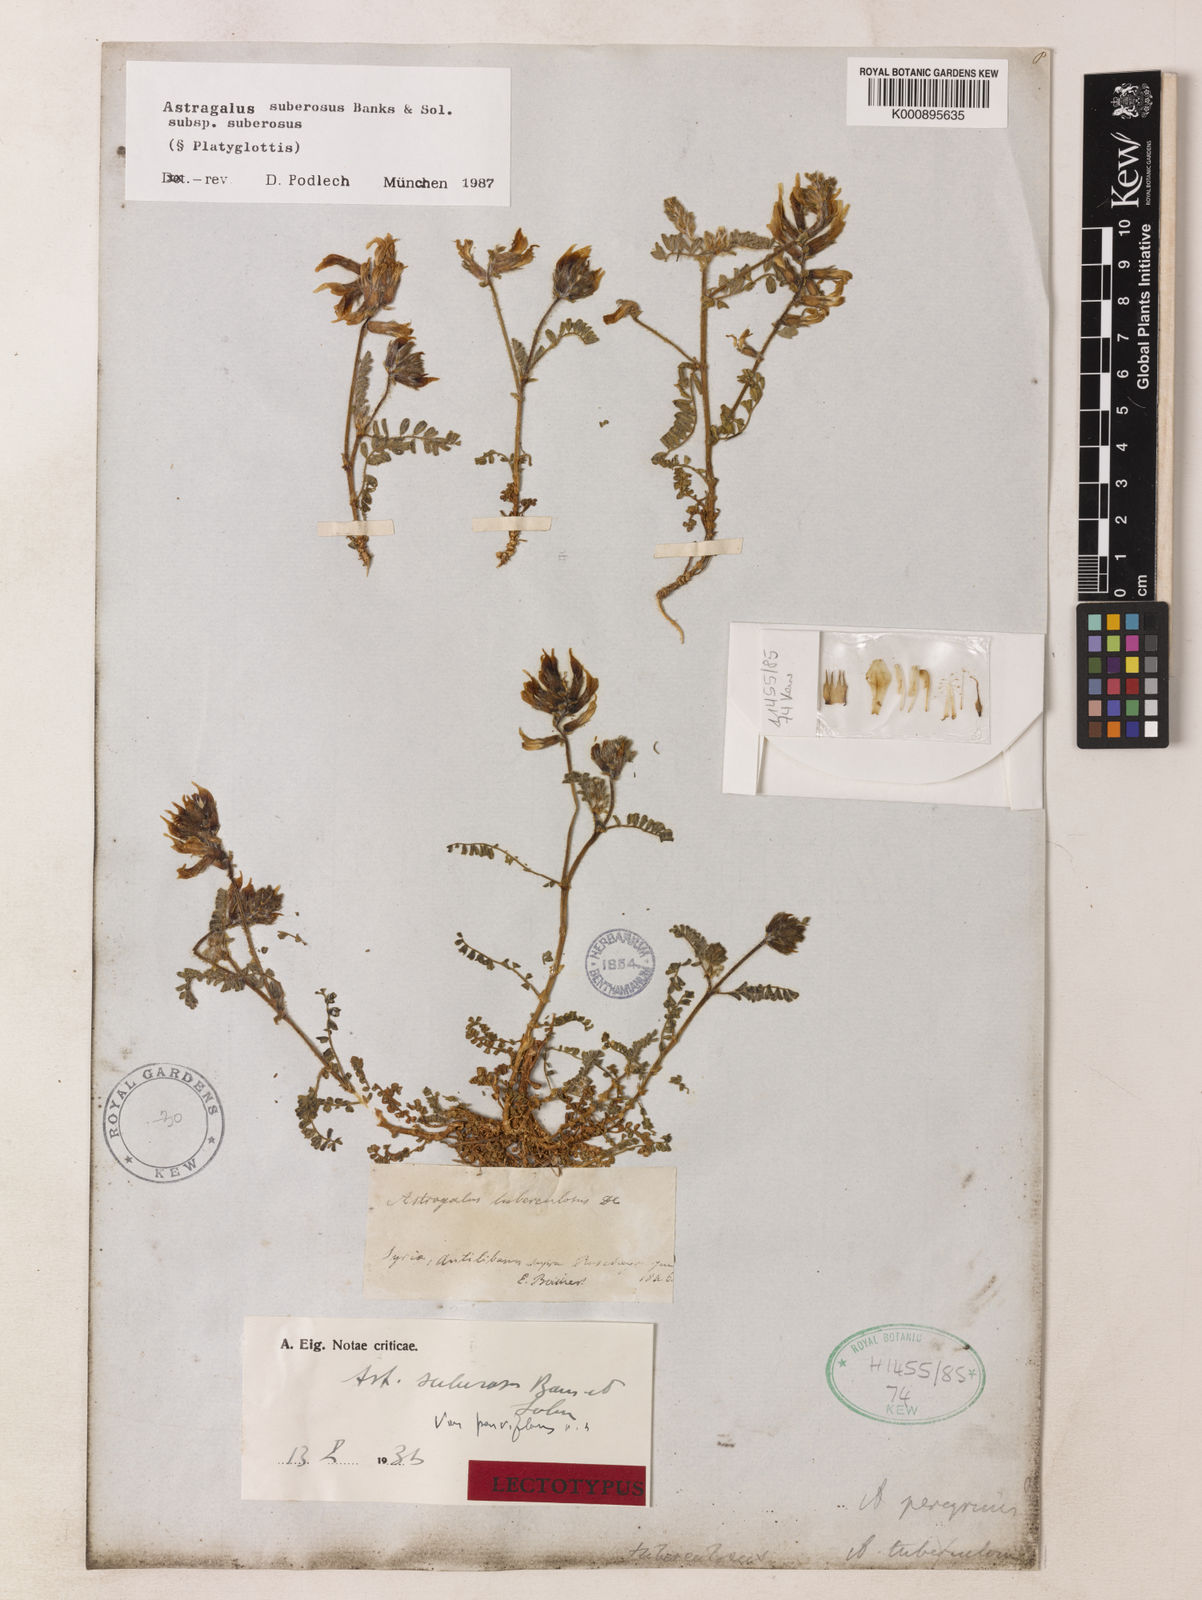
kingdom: Plantae
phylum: Tracheophyta
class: Magnoliopsida
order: Fabales
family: Fabaceae
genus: Astragalus
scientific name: Astragalus suberosus
